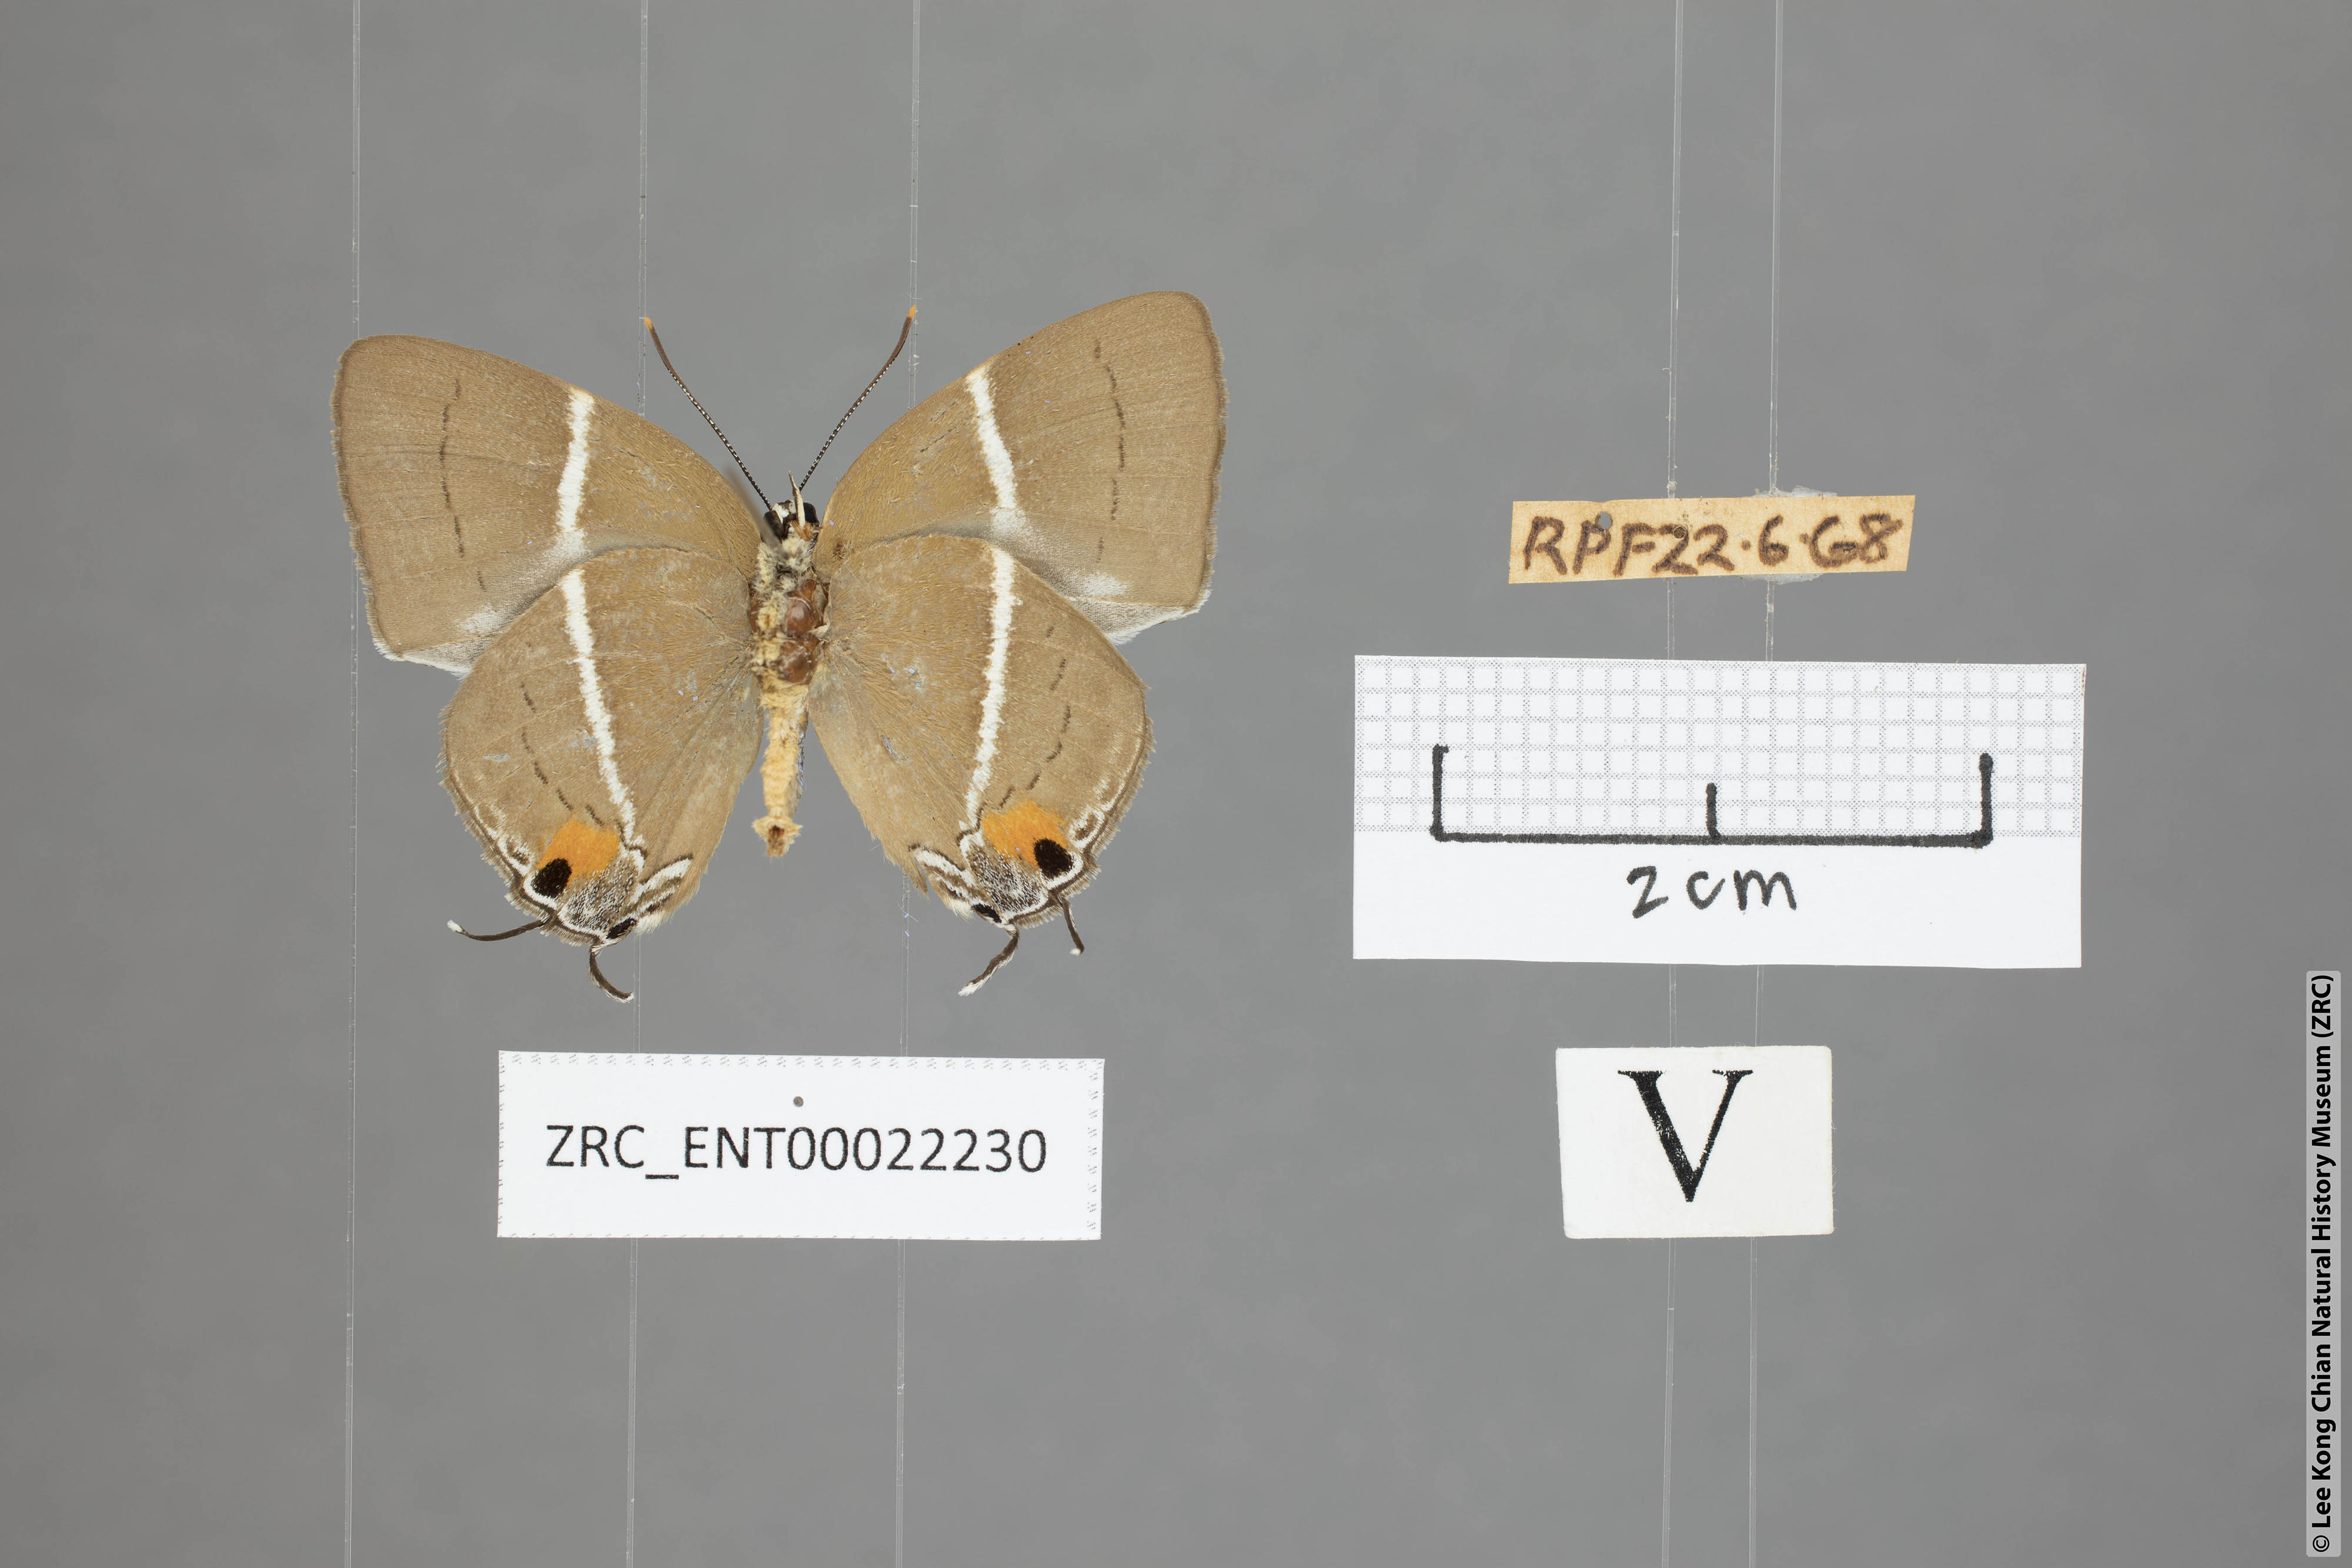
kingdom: Animalia
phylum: Arthropoda
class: Insecta
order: Lepidoptera
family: Lycaenidae
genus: Tajuria
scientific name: Tajuria
